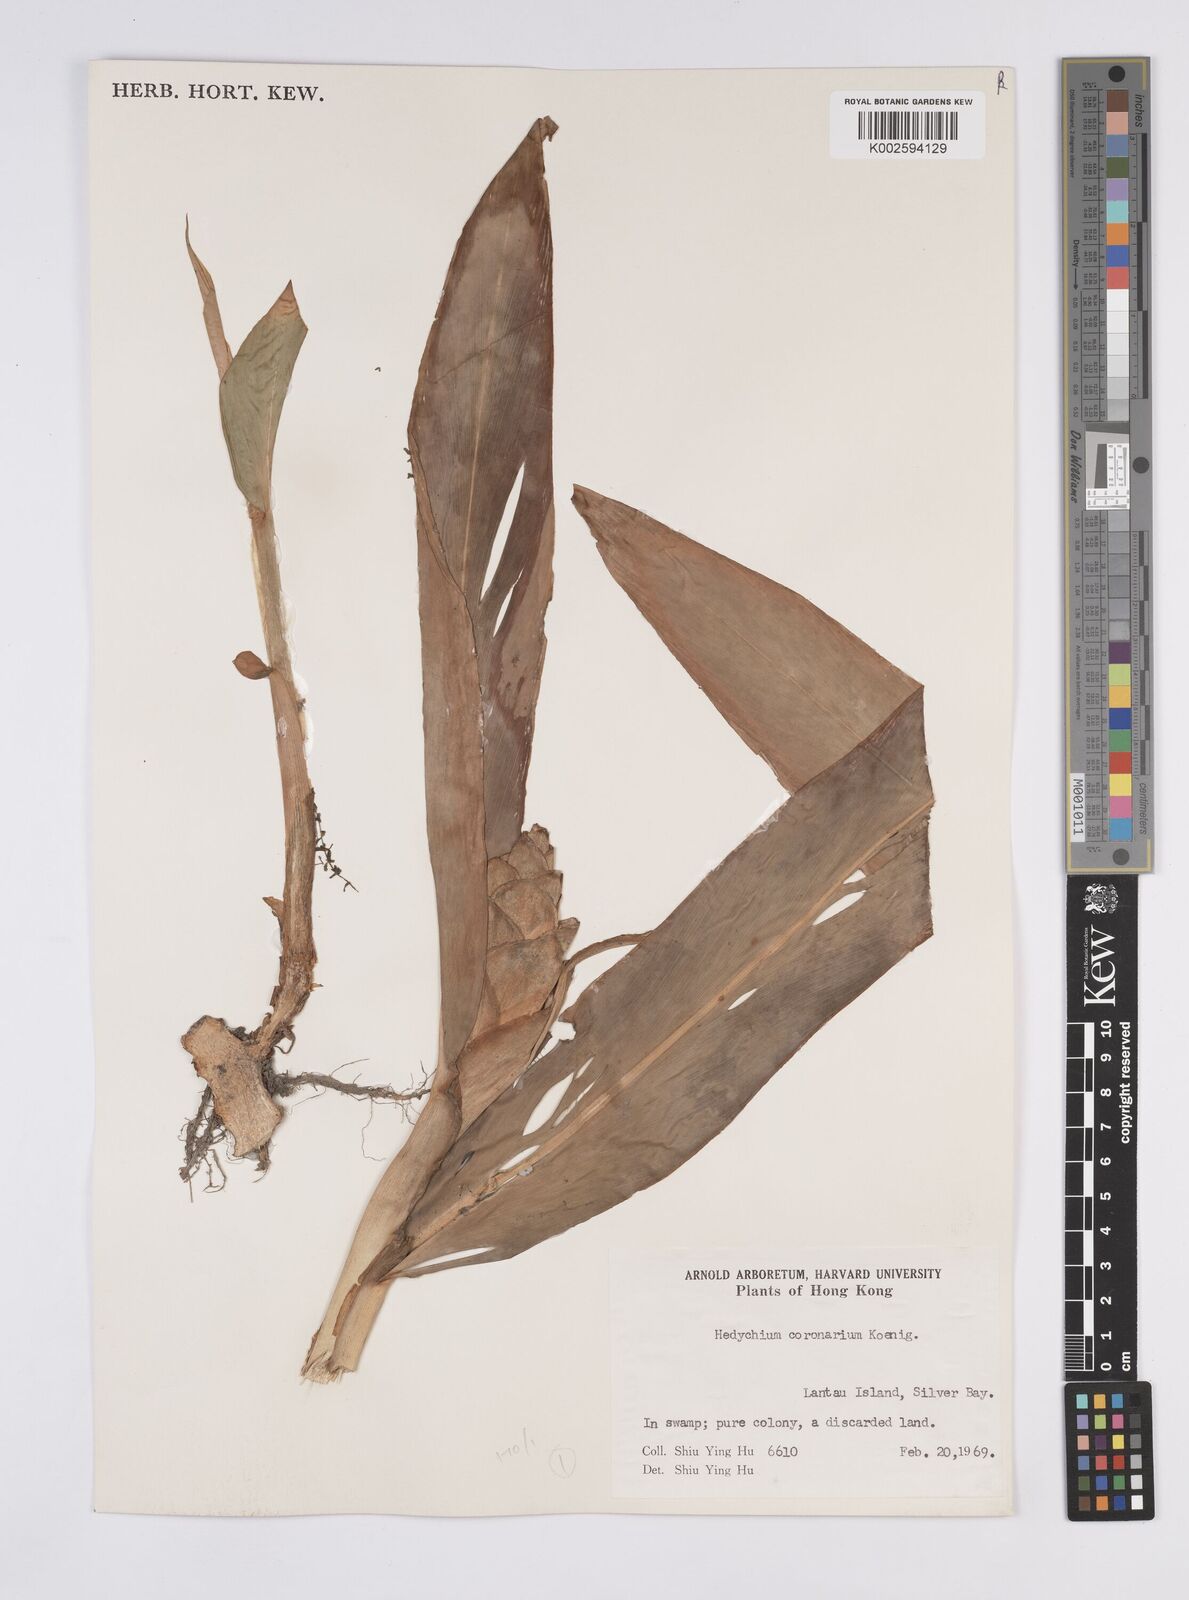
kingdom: Plantae
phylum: Tracheophyta
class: Liliopsida
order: Zingiberales
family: Zingiberaceae
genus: Hedychium
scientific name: Hedychium coronarium
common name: White garland-lily
